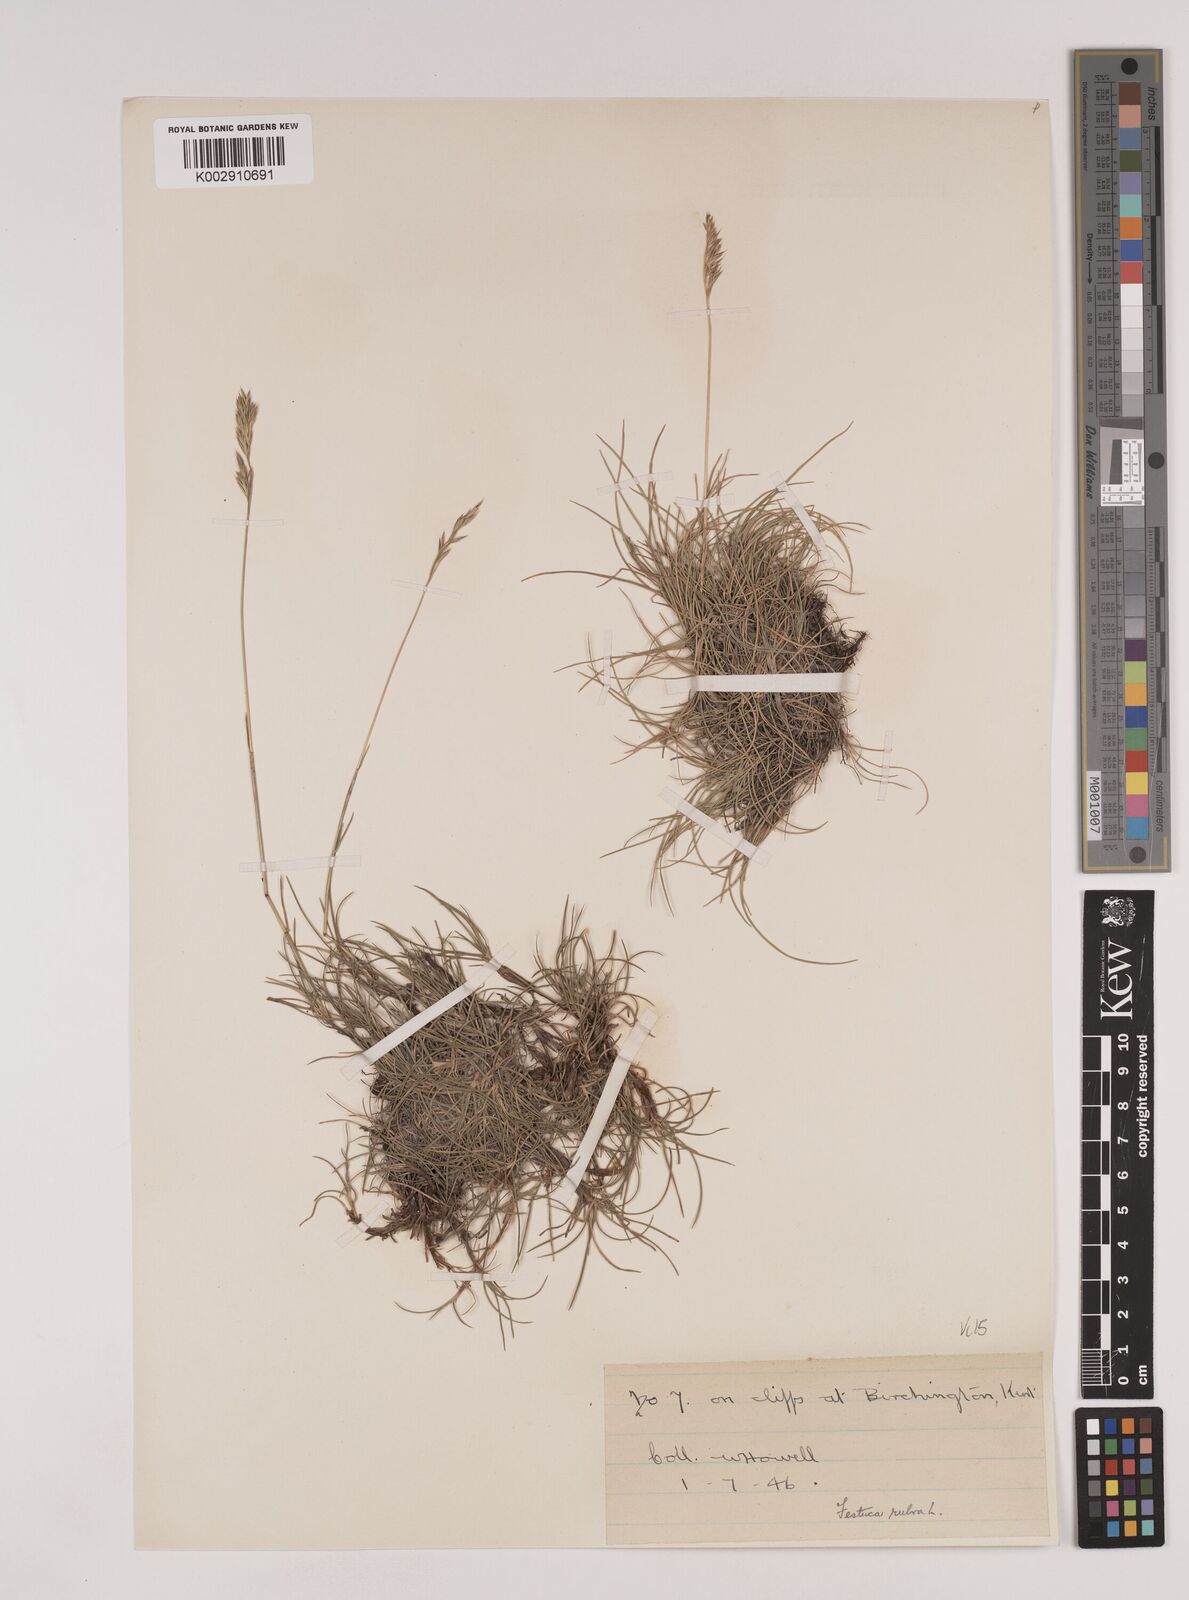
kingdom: Plantae
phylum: Tracheophyta
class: Liliopsida
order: Poales
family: Poaceae
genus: Festuca
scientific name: Festuca rubra
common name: Red fescue
